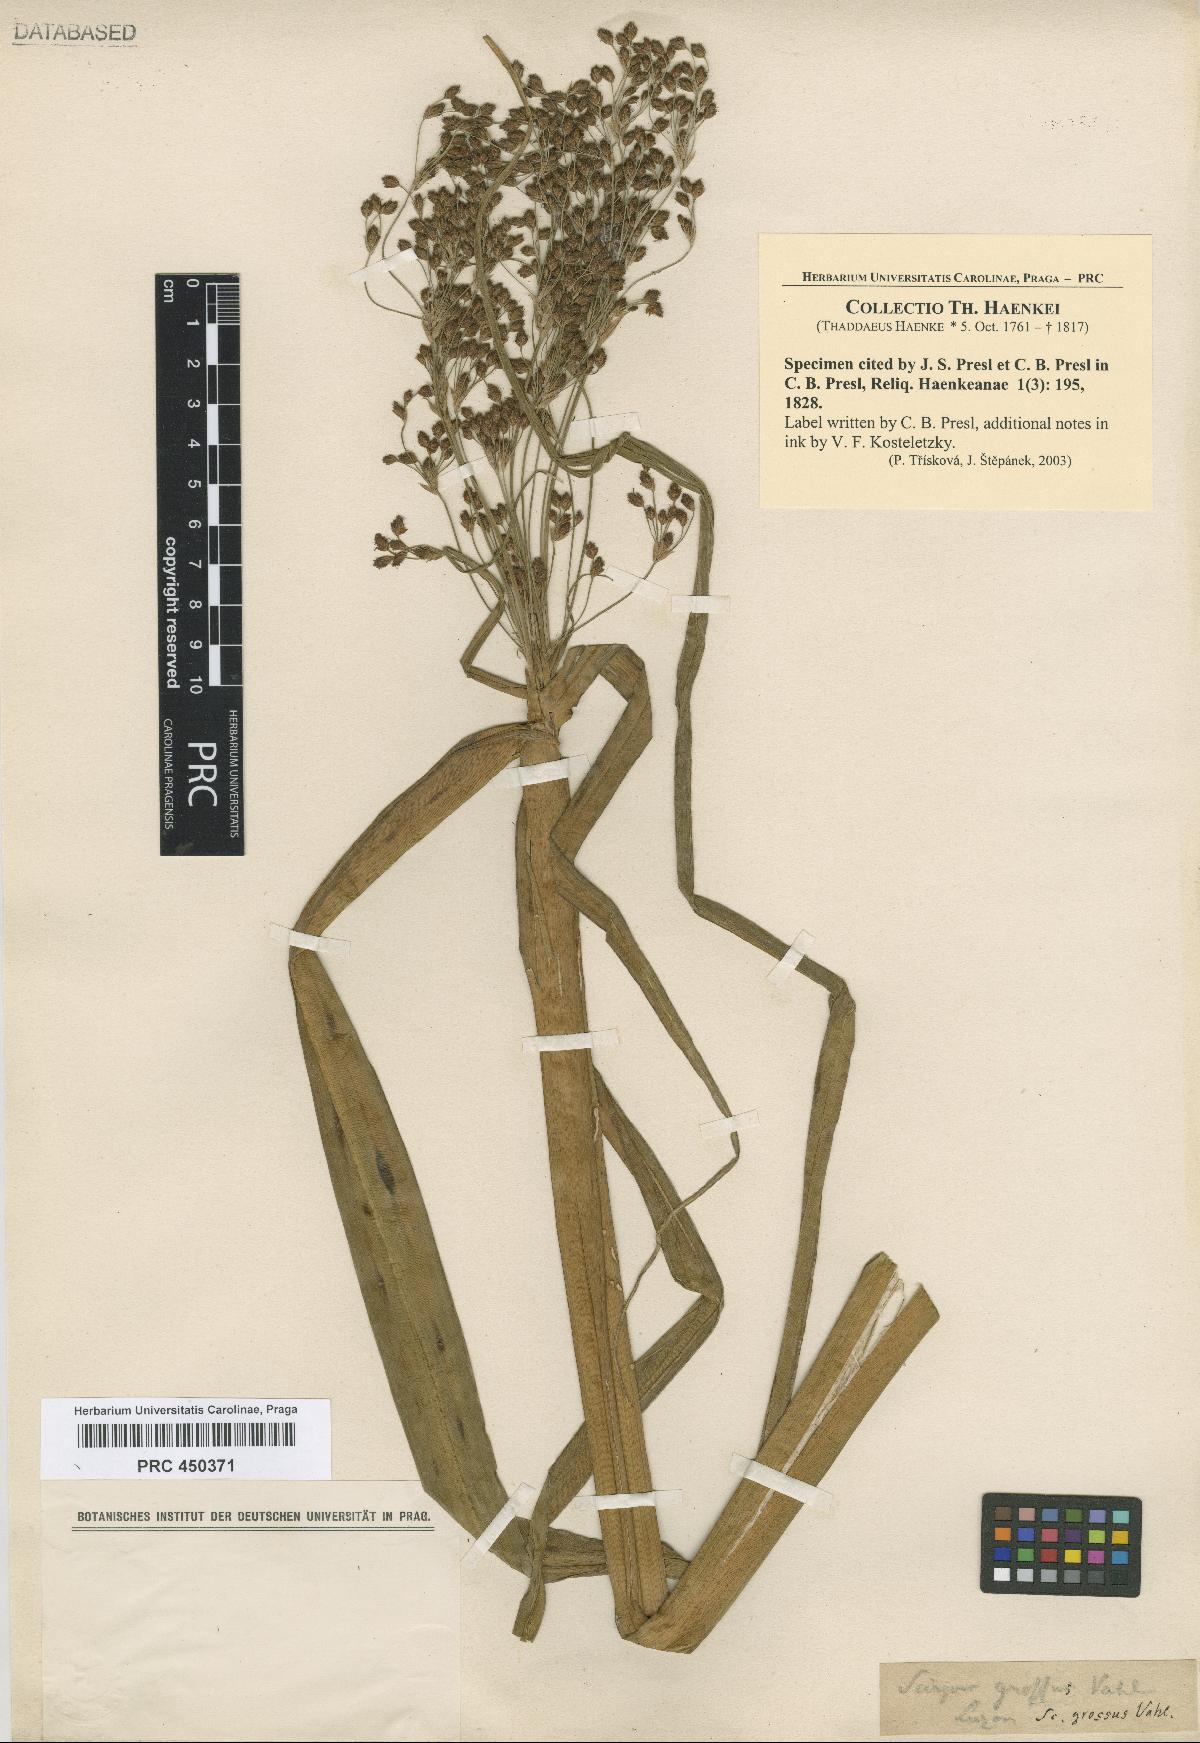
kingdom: Plantae
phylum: Tracheophyta
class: Liliopsida
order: Poales
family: Cyperaceae
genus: Actinoscirpus
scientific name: Actinoscirpus grossus
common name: Giant bur rush
